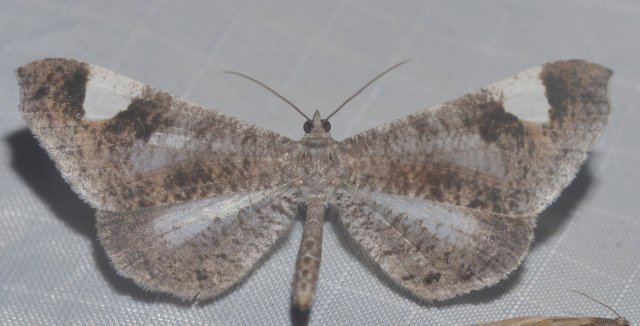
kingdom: Animalia
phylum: Arthropoda
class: Insecta
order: Lepidoptera
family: Hedylidae
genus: Macrosoma
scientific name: Macrosoma
